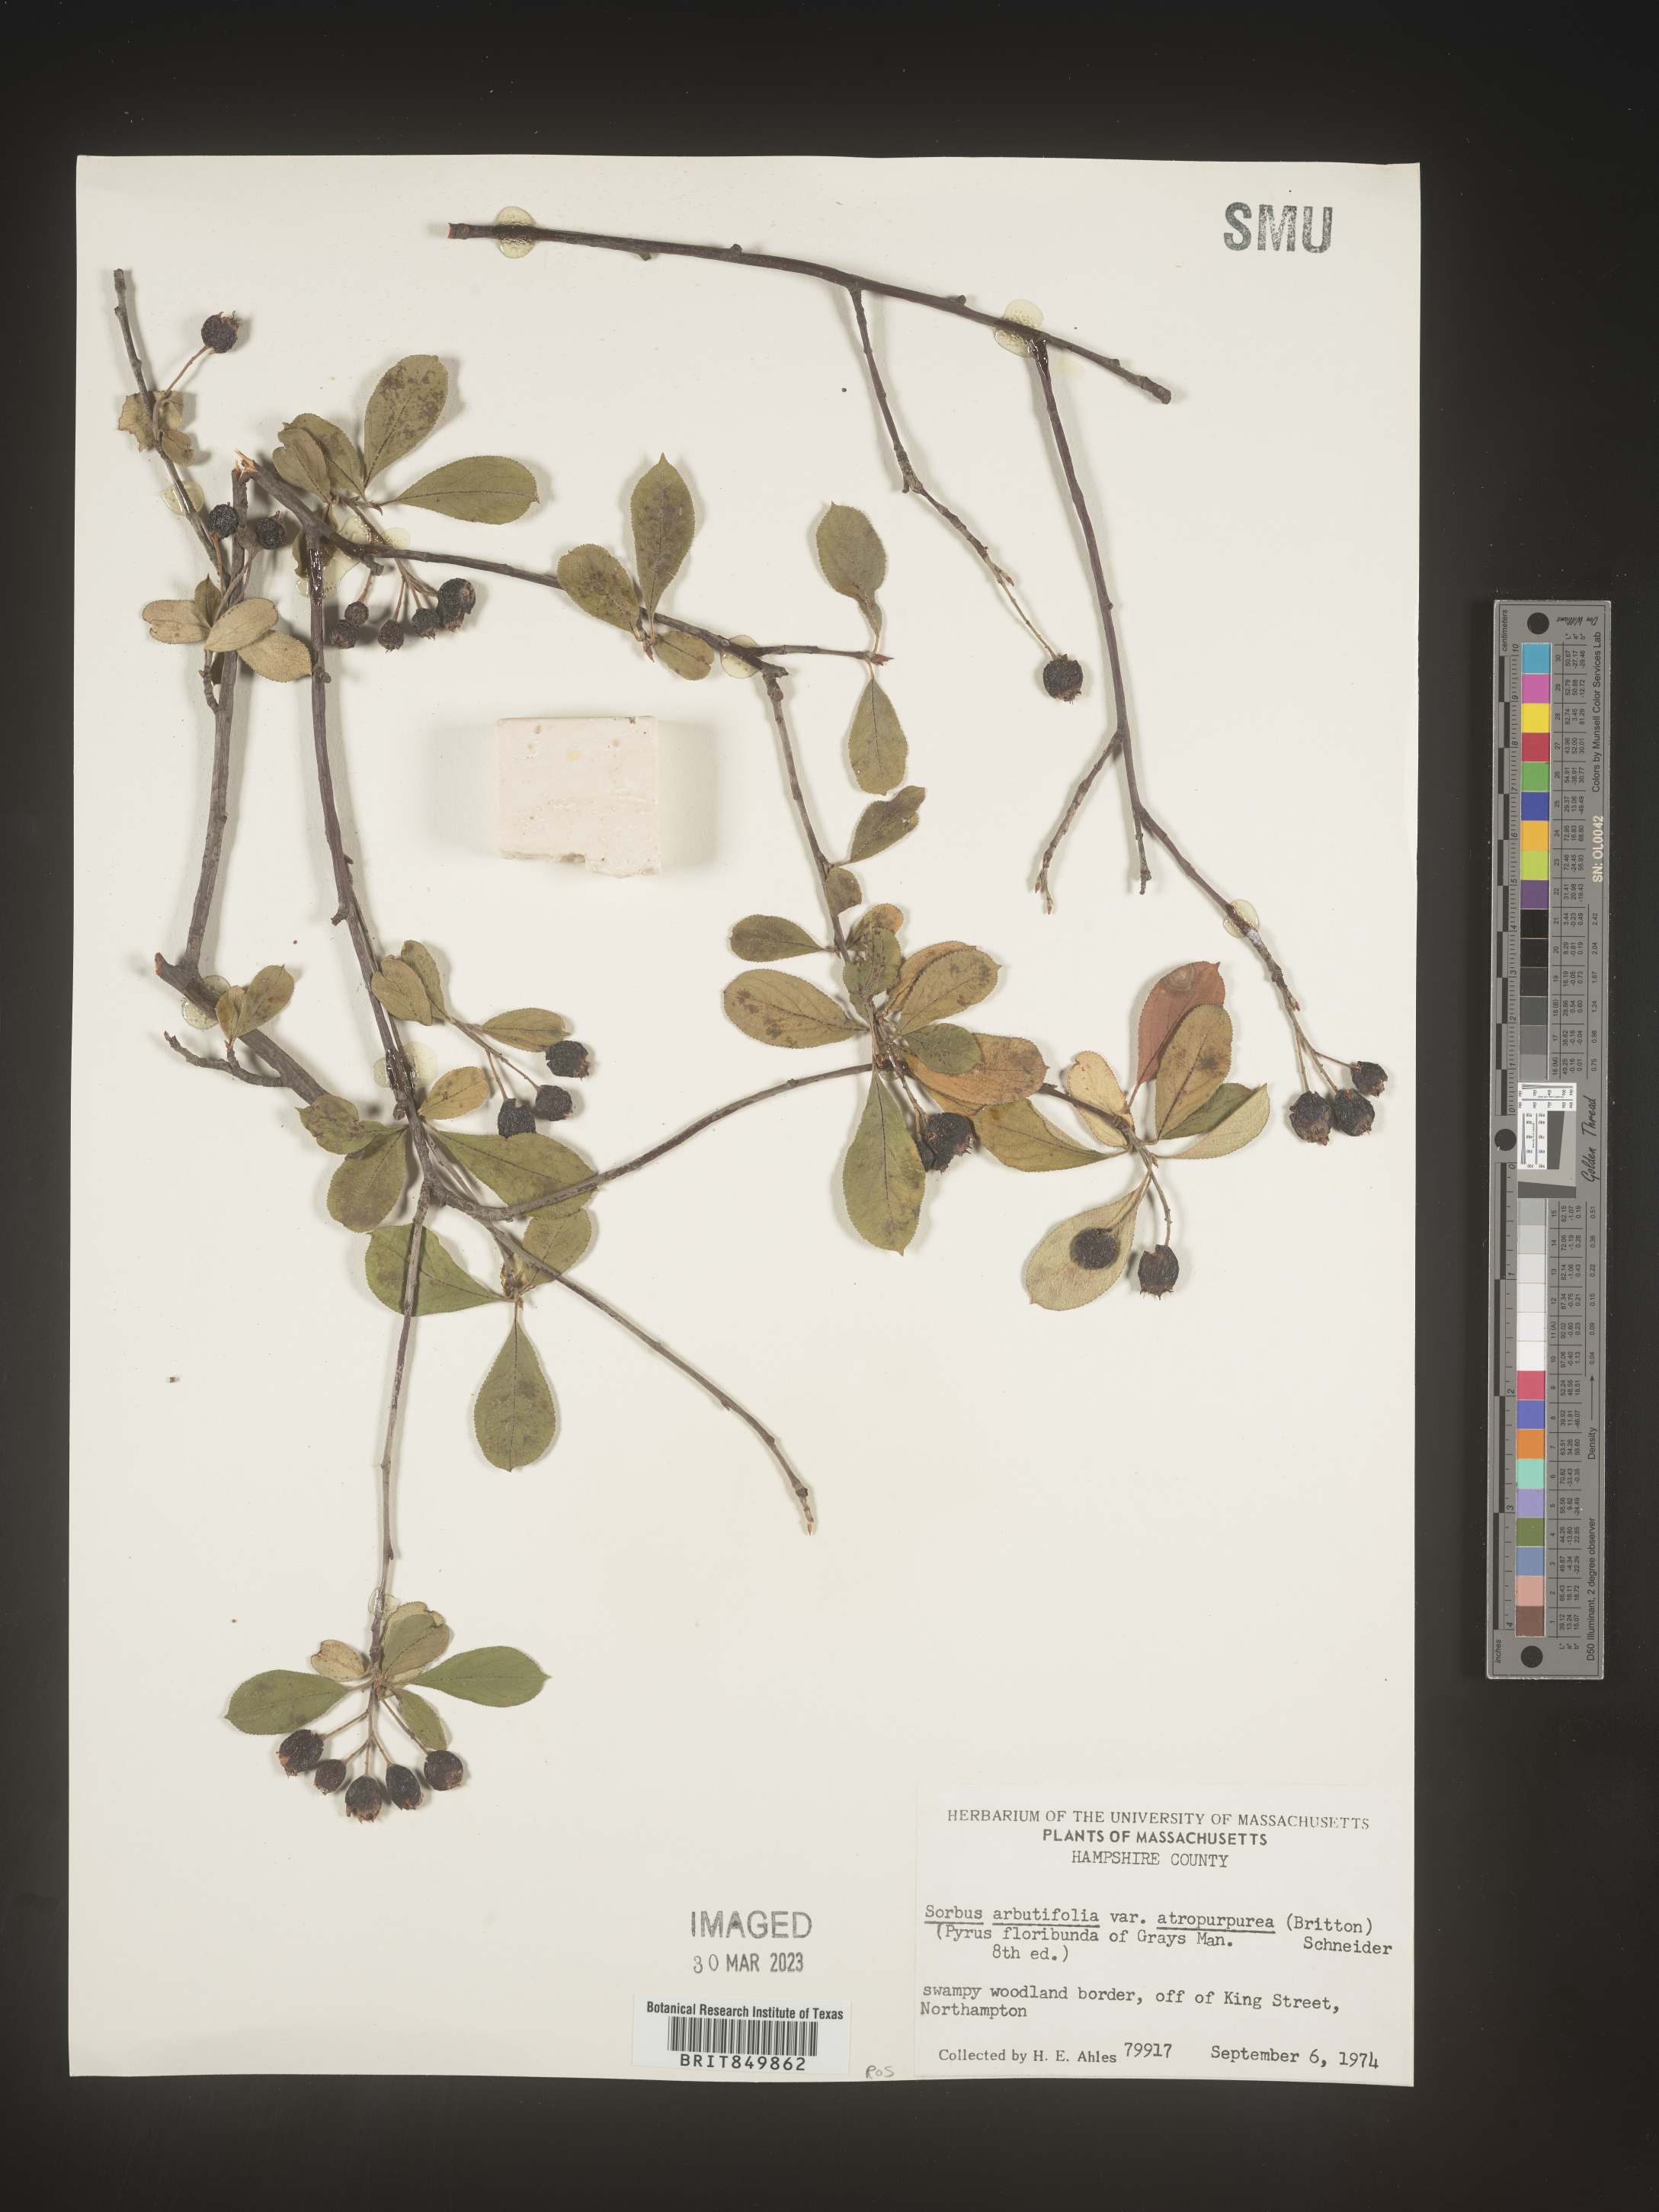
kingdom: Plantae
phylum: Tracheophyta
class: Magnoliopsida
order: Rosales
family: Rosaceae
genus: Sorbus
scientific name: Sorbus
